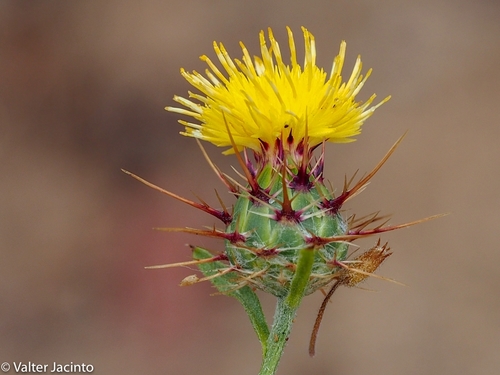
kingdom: Plantae
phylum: Tracheophyta
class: Magnoliopsida
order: Asterales
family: Asteraceae
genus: Centaurea
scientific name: Centaurea melitensis
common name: Maltese star-thistle
